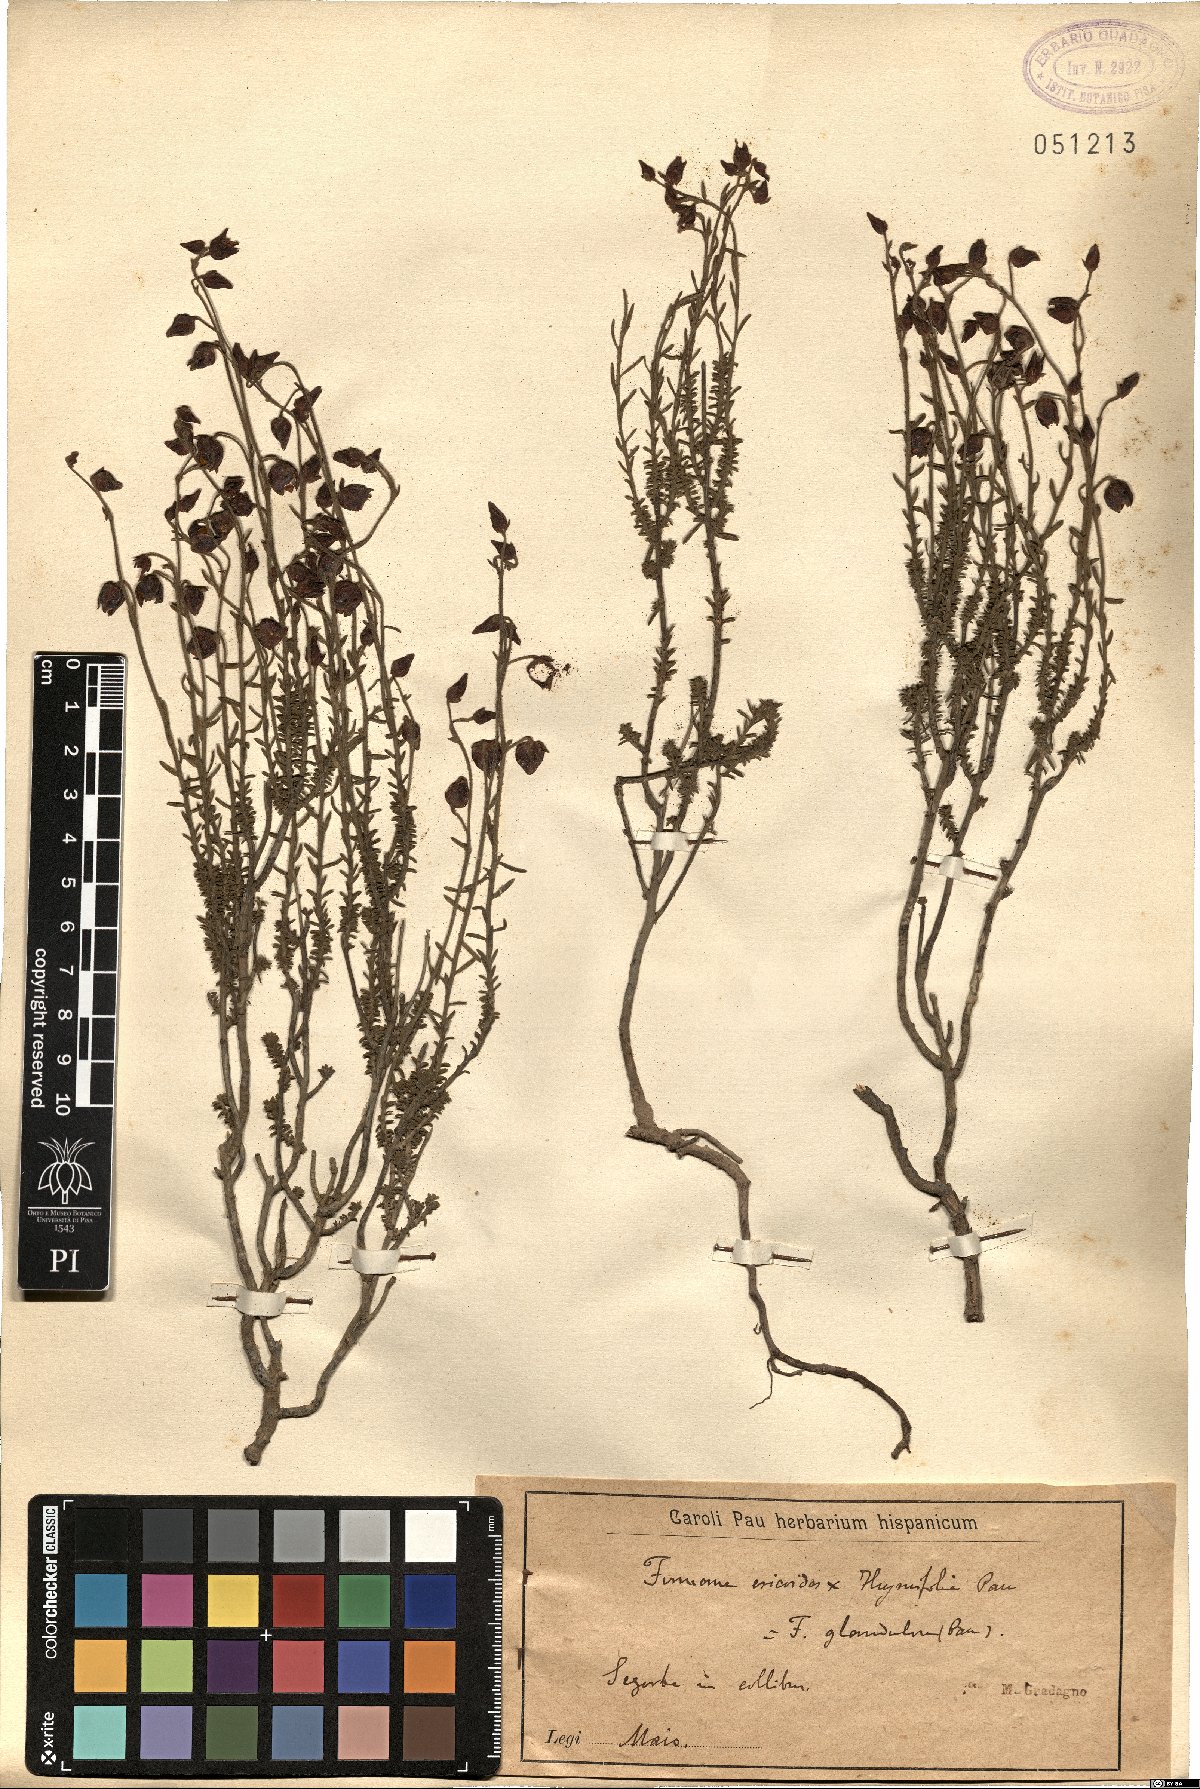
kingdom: Plantae
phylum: Tracheophyta
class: Magnoliopsida
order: Malvales
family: Cistaceae
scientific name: Cistaceae
